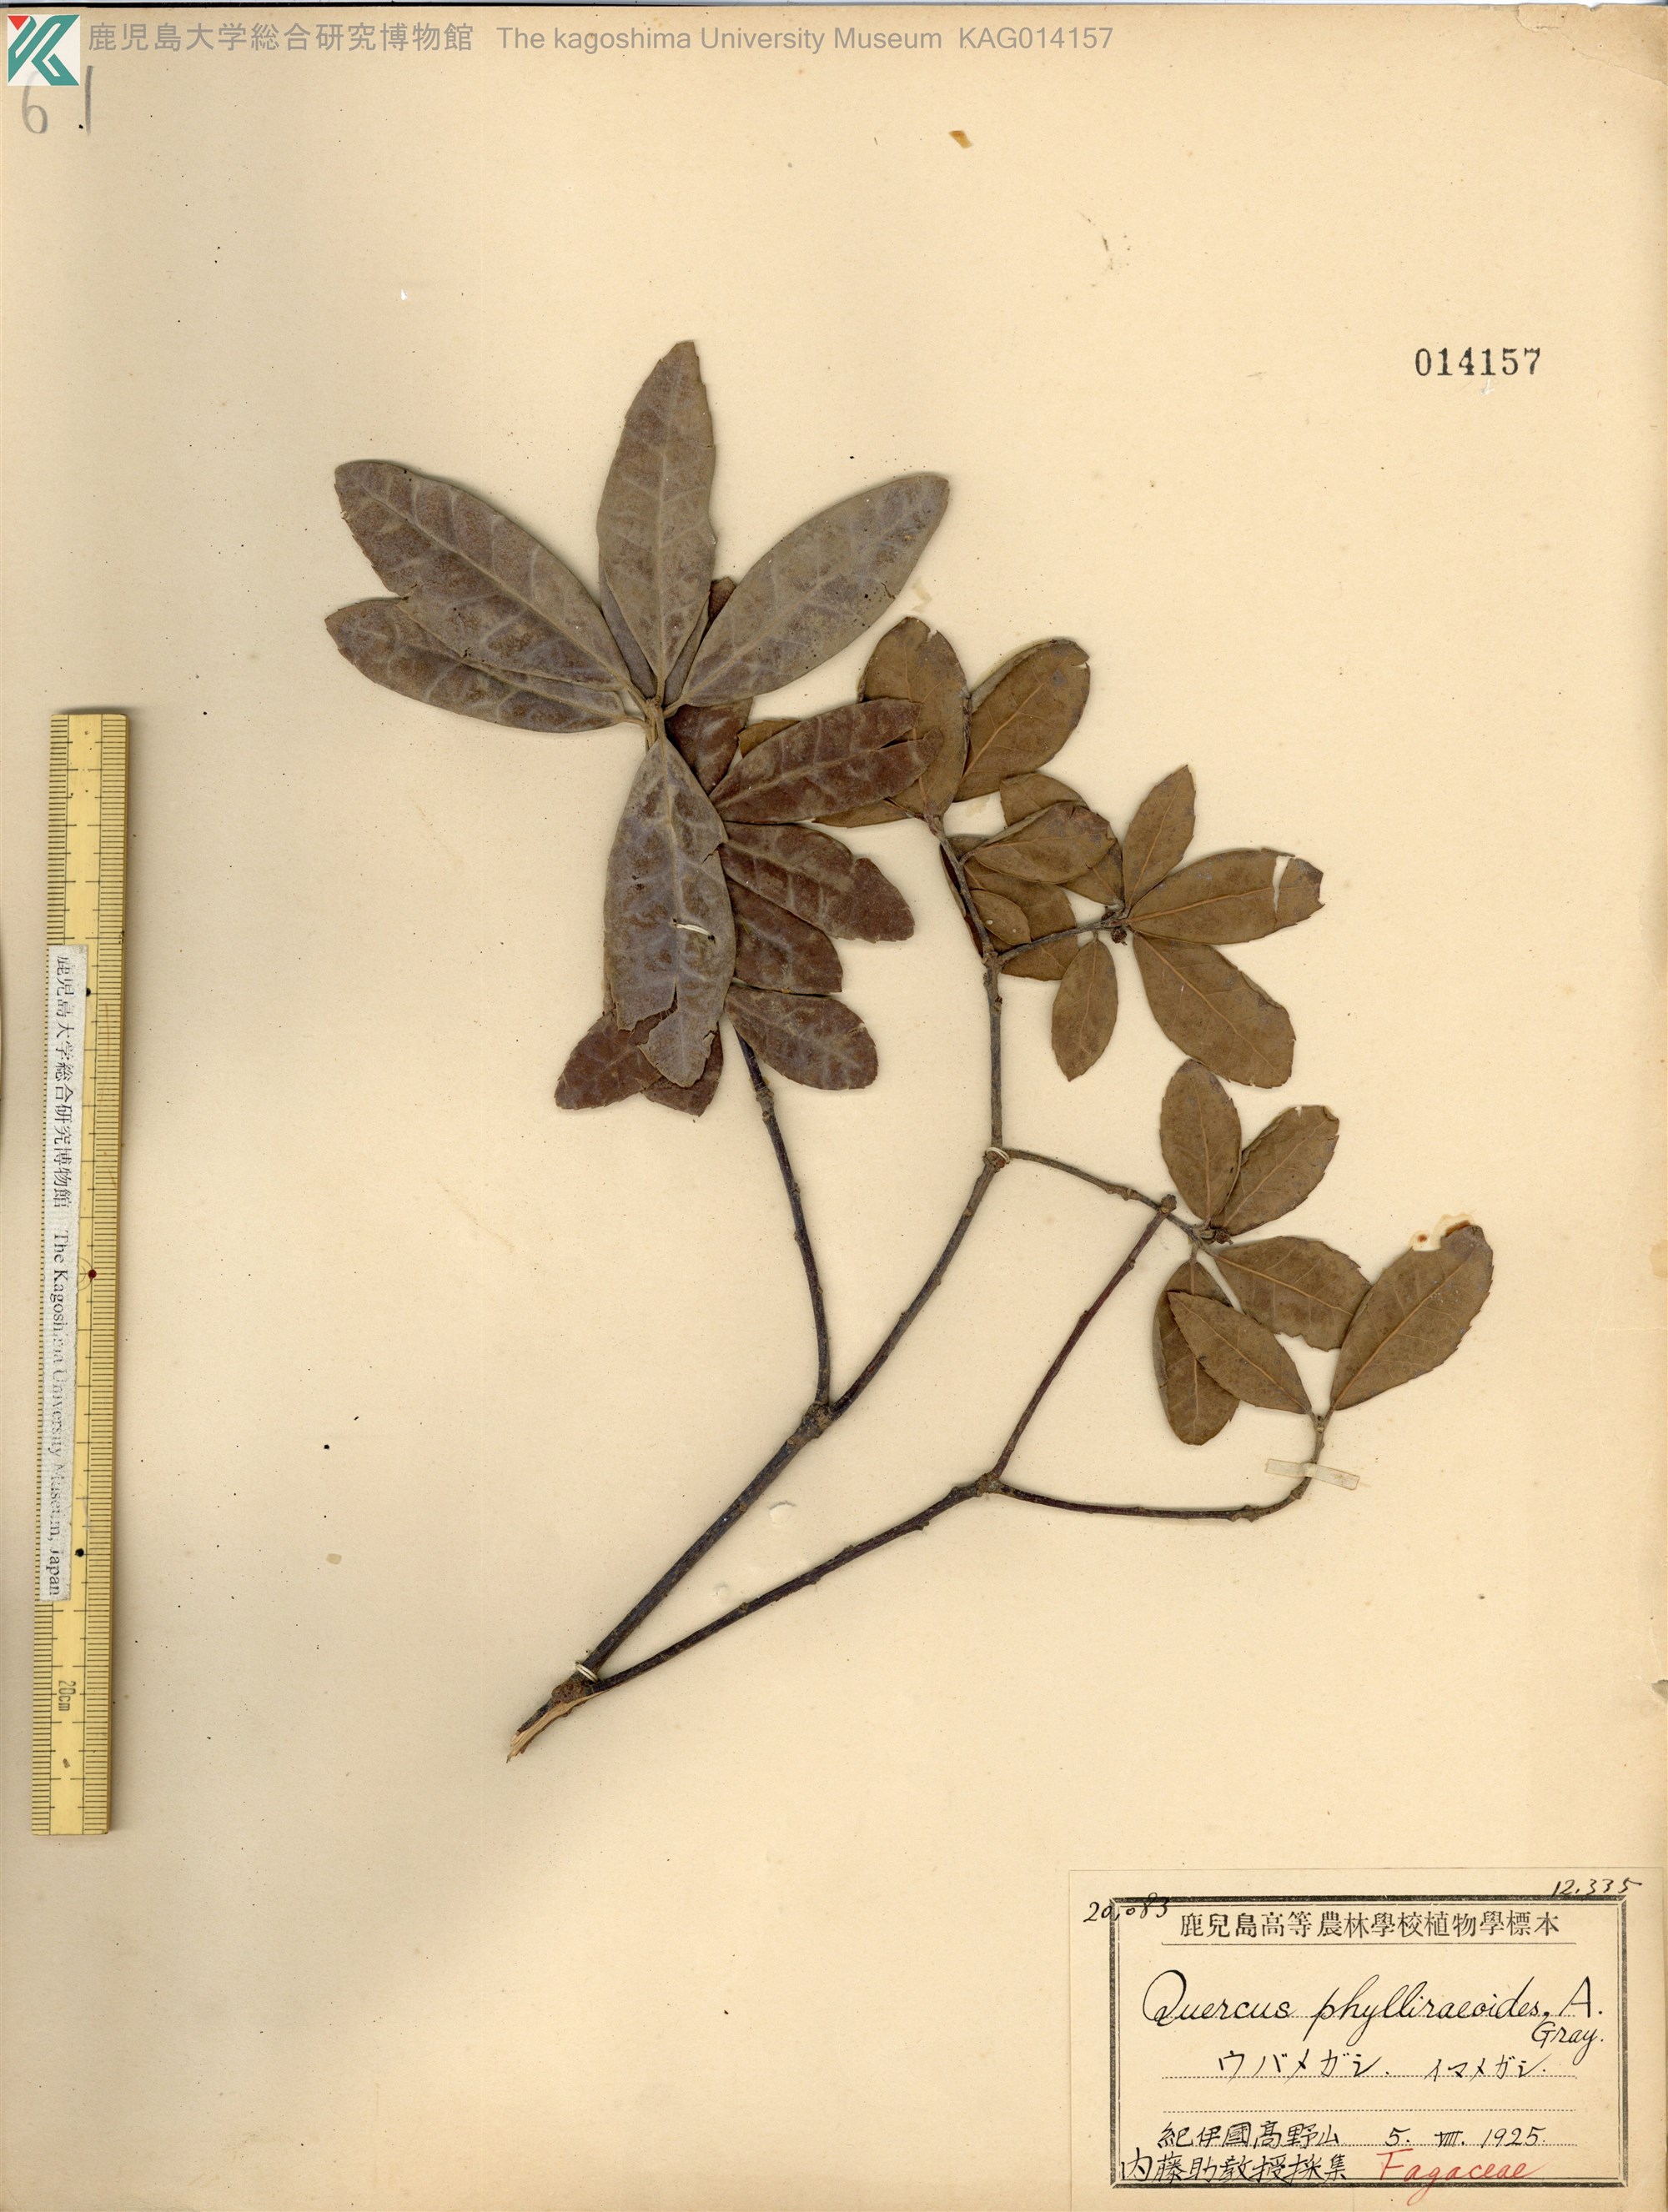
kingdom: Plantae
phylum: Tracheophyta
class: Magnoliopsida
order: Fagales
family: Fagaceae
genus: Quercus
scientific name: Quercus phillyraeoides
